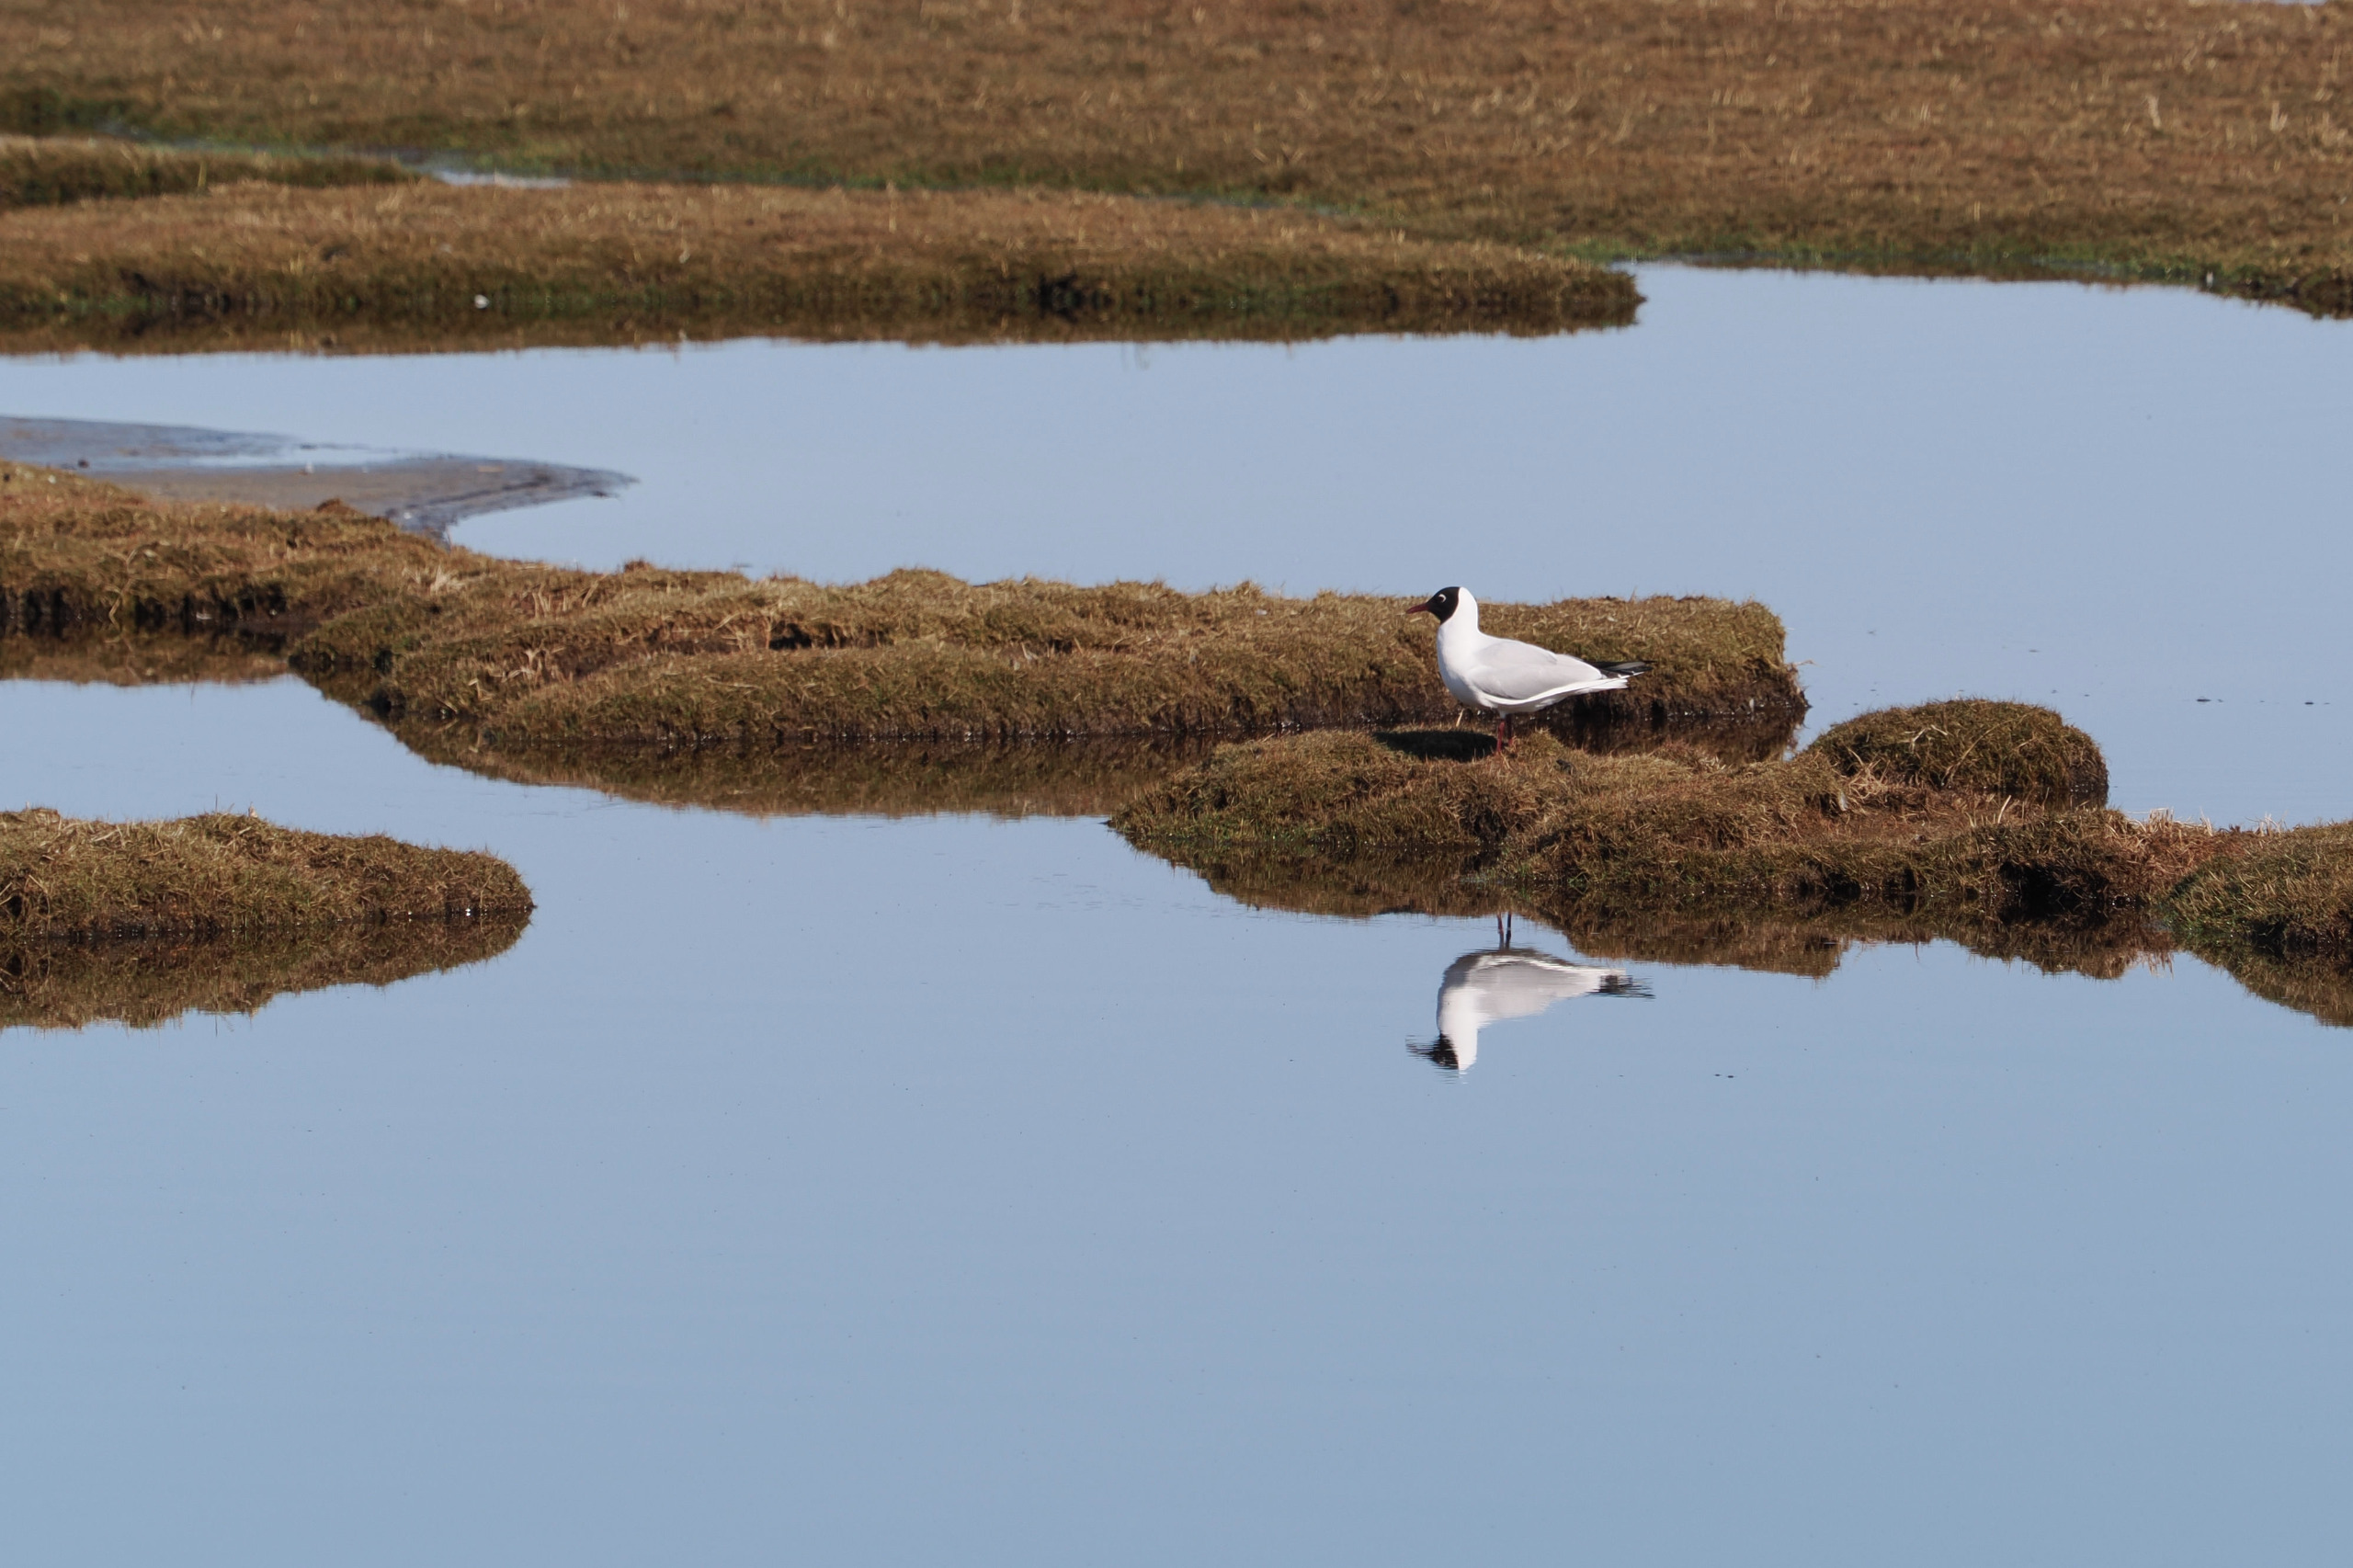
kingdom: Animalia
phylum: Chordata
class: Aves
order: Charadriiformes
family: Laridae
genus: Chroicocephalus
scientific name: Chroicocephalus ridibundus
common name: Hættemåge
